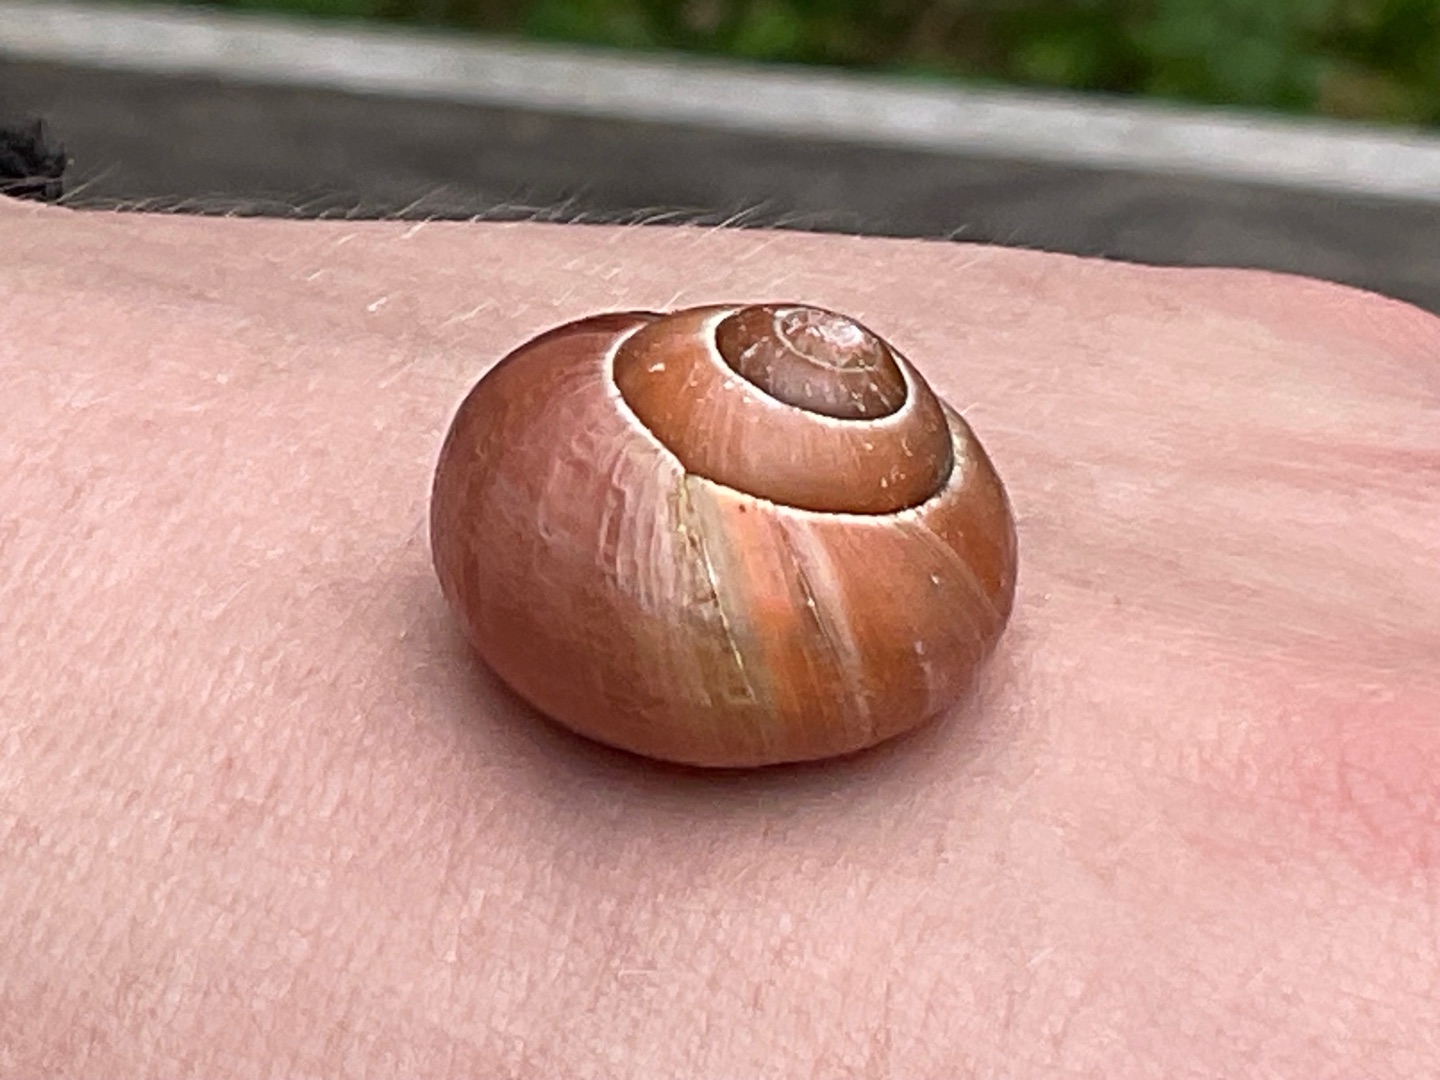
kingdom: Animalia
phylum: Mollusca
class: Gastropoda
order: Stylommatophora
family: Helicidae
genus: Cepaea
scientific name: Cepaea nemoralis
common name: Lundsnegl
